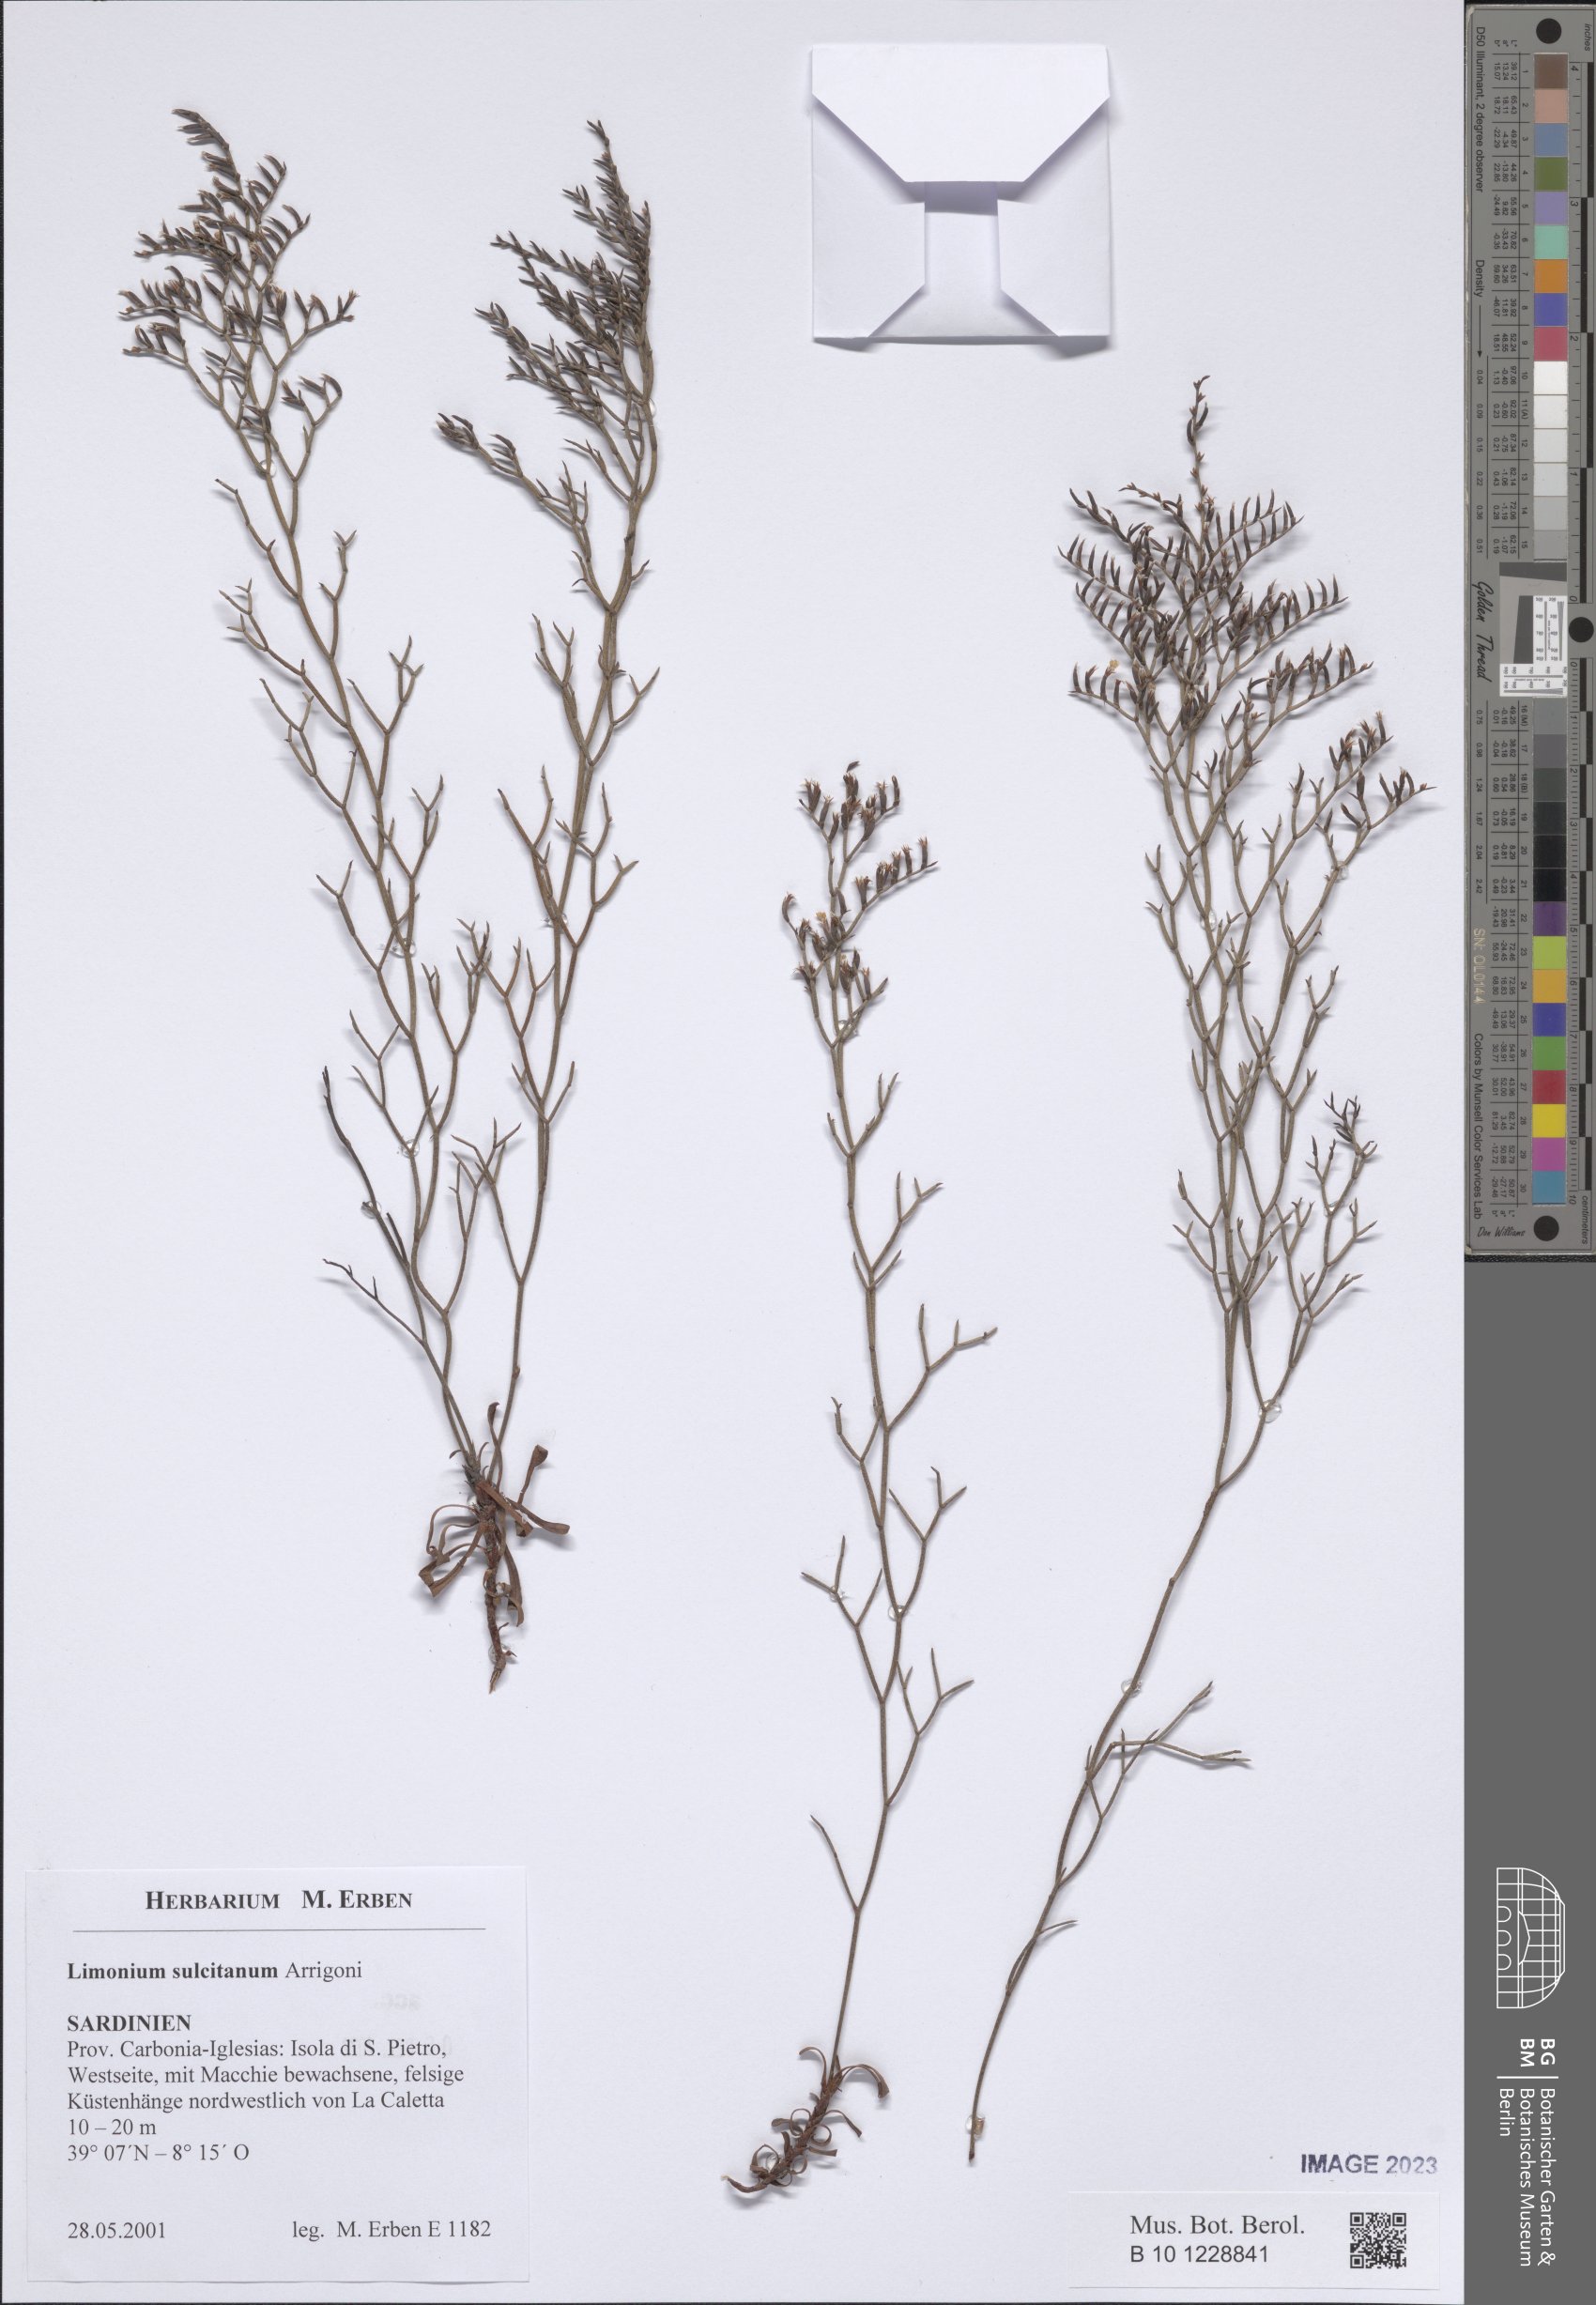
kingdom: Plantae
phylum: Tracheophyta
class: Magnoliopsida
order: Caryophyllales
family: Plumbaginaceae
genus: Limonium
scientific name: Limonium sulcitanum
